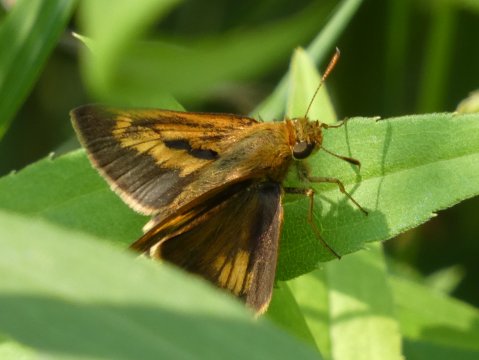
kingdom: Animalia
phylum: Arthropoda
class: Insecta
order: Lepidoptera
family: Hesperiidae
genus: Euphyes
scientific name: Euphyes conspicua
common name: Black Dash
